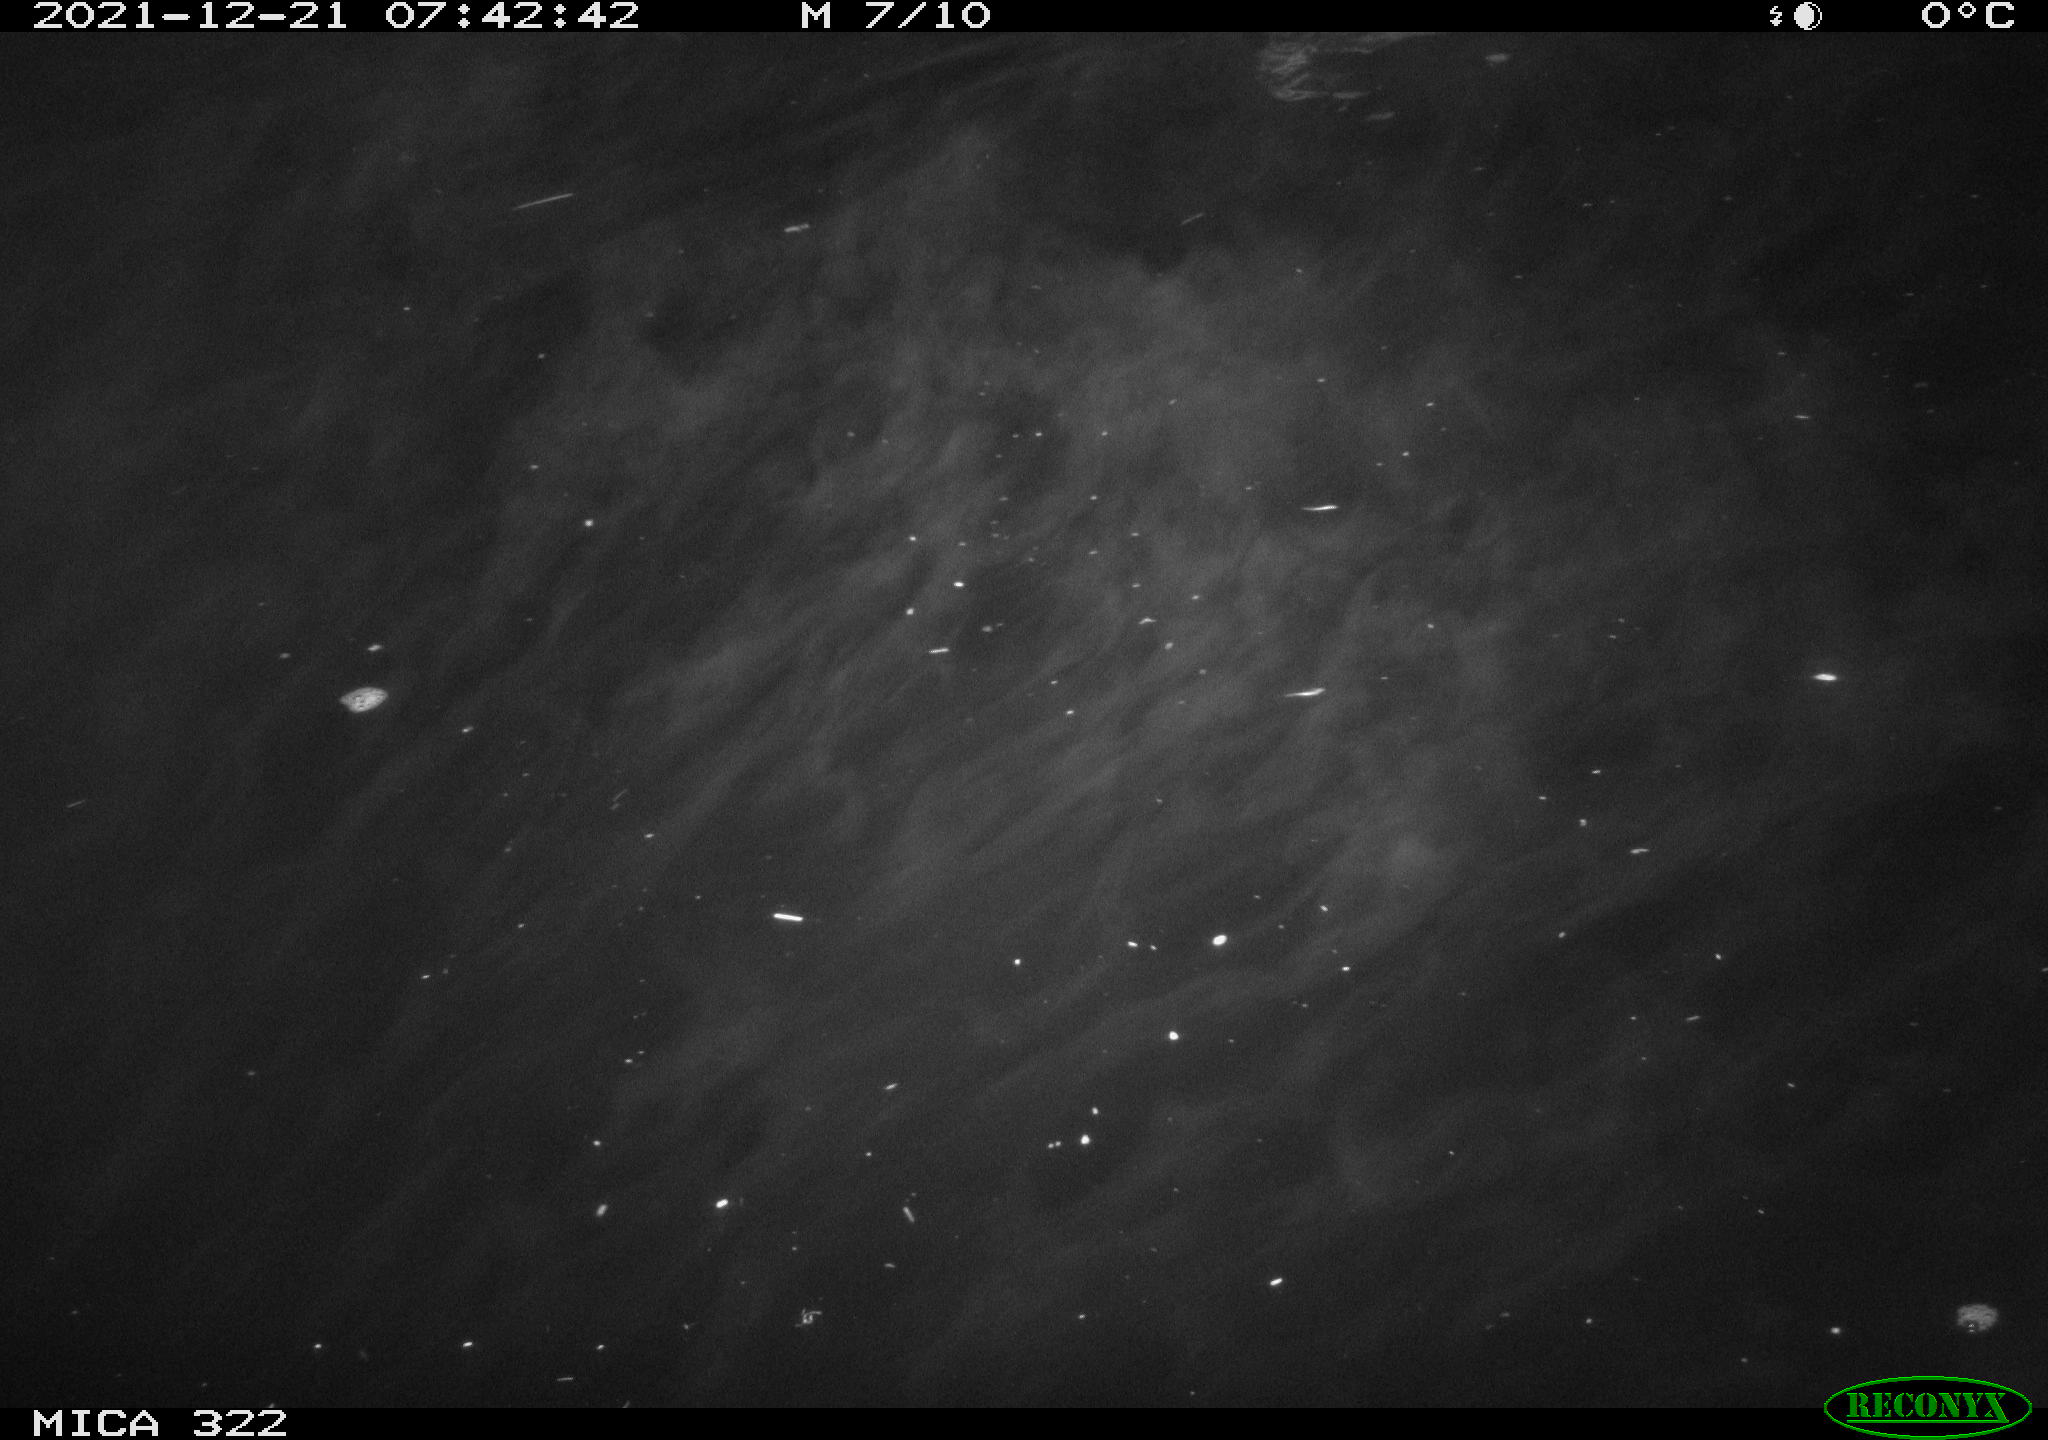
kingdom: Animalia
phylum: Chordata
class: Aves
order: Anseriformes
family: Anatidae
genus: Anas
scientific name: Anas
